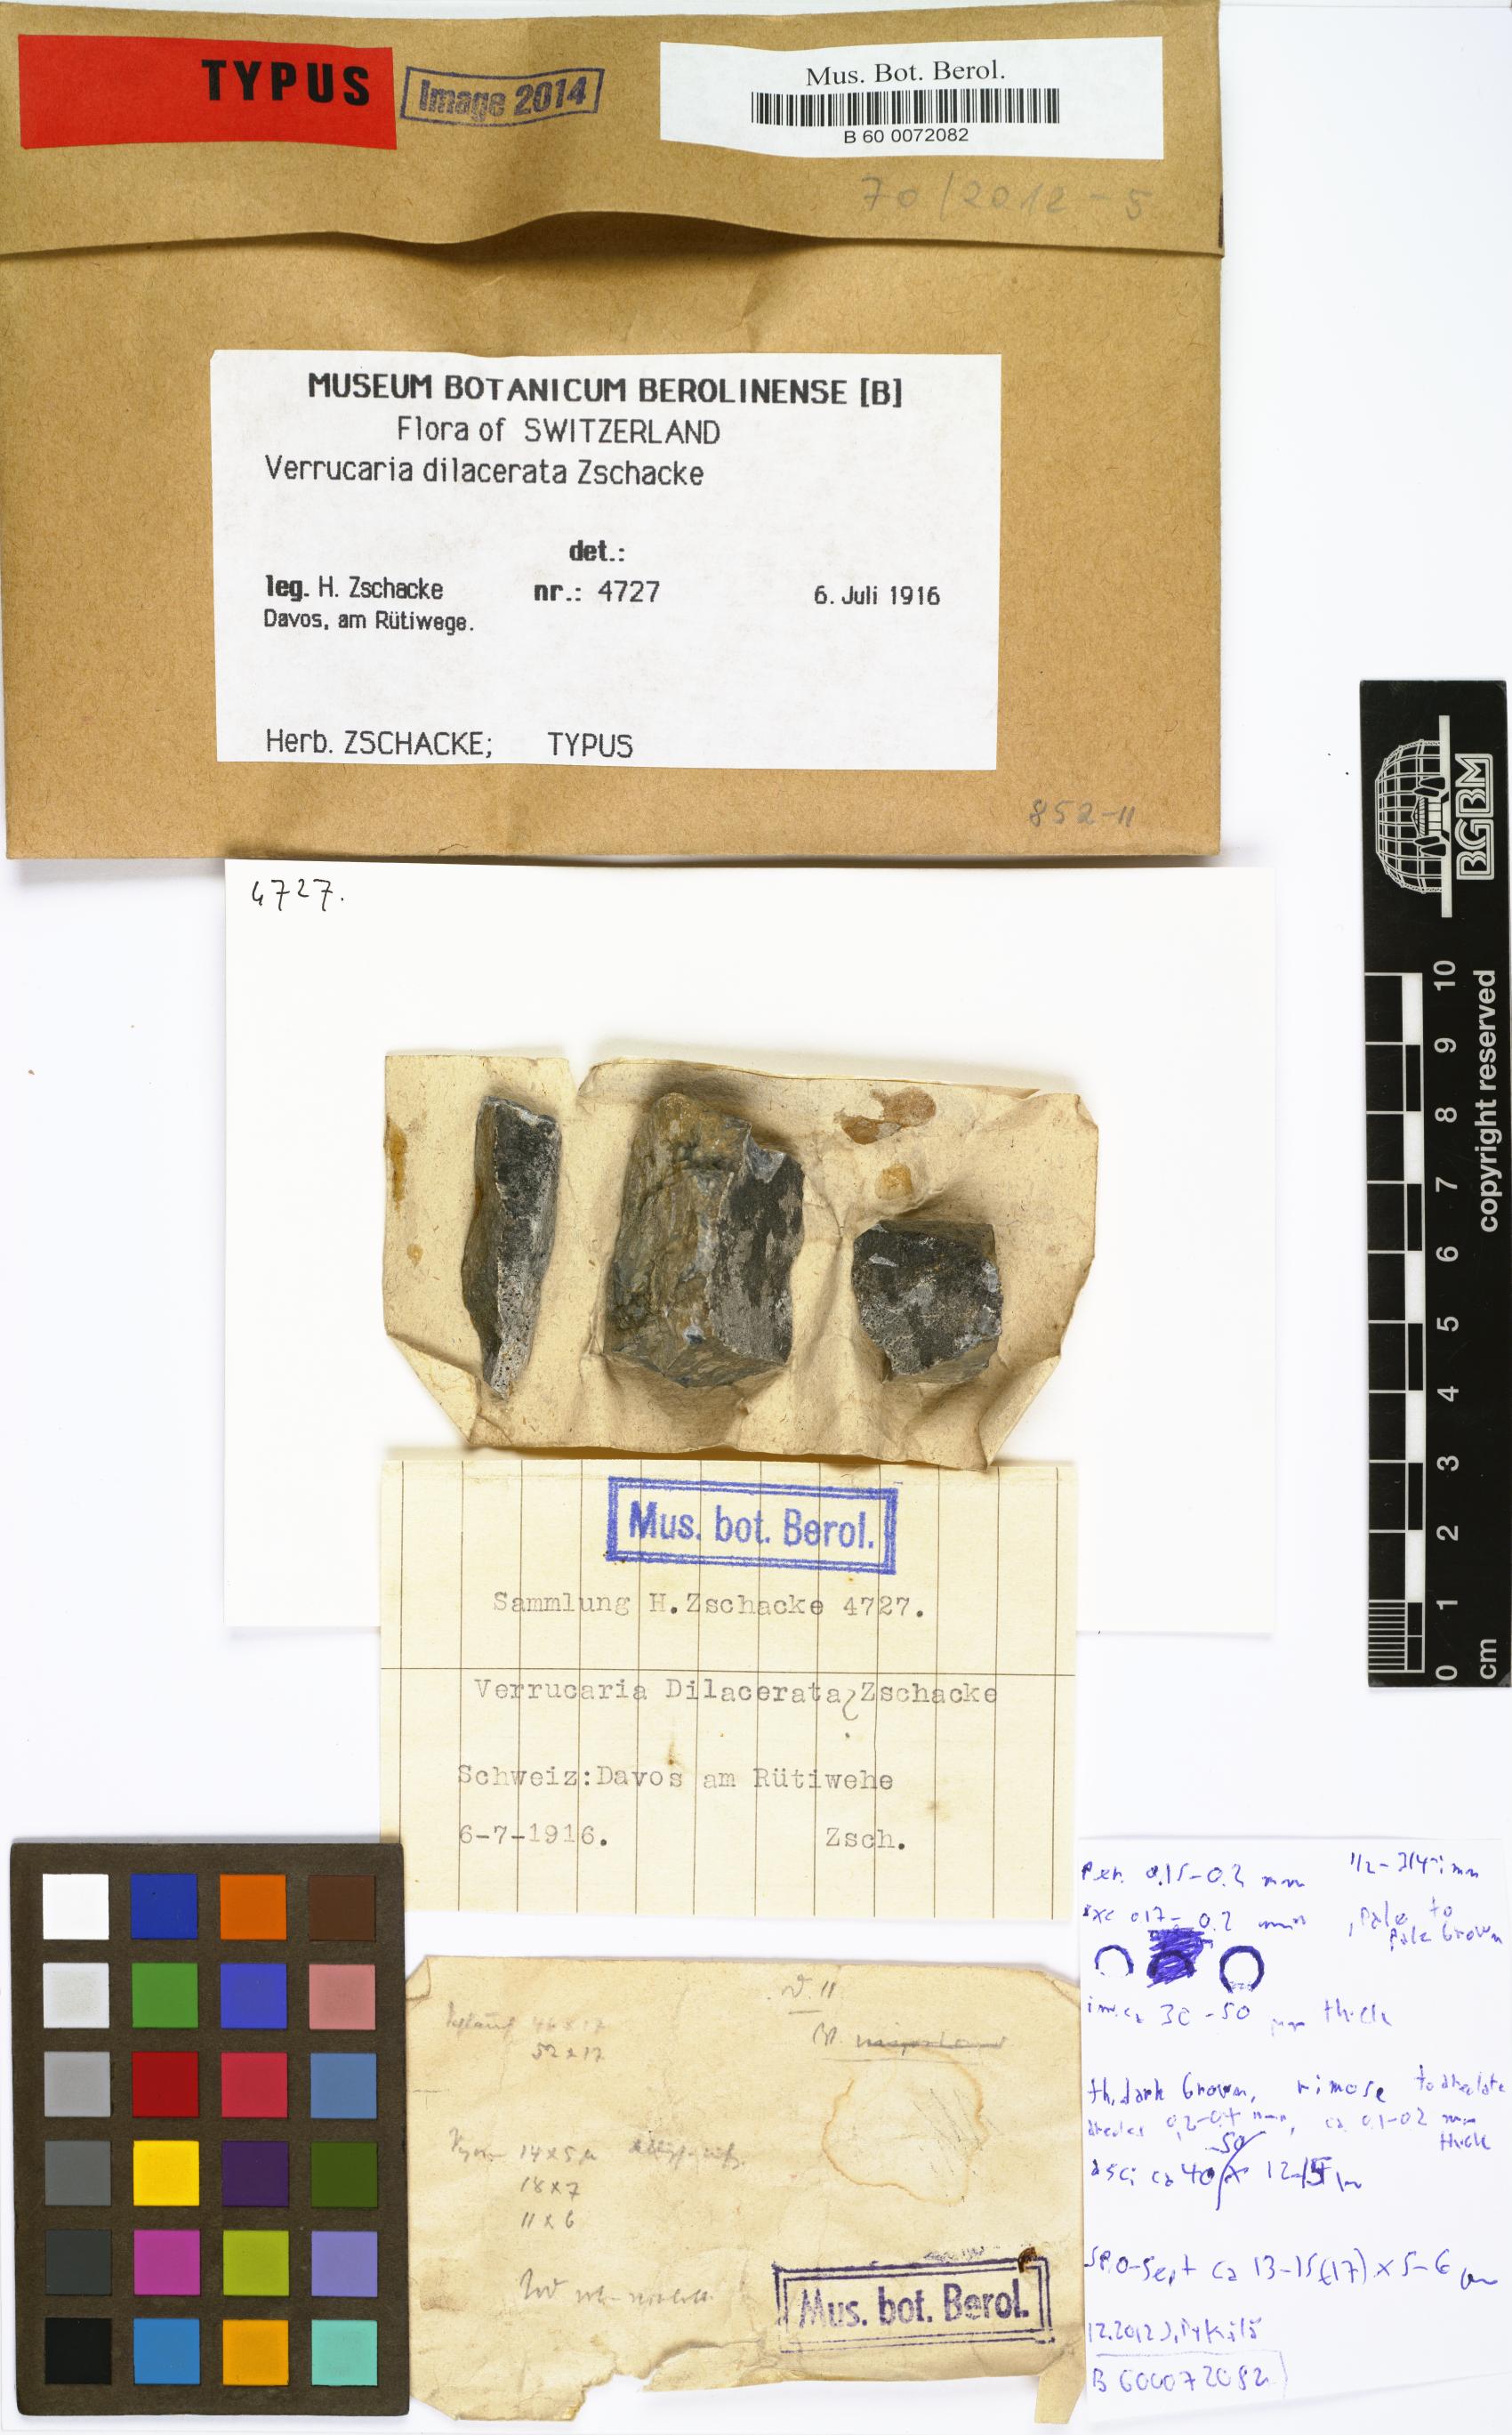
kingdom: Fungi
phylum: Ascomycota
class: Eurotiomycetes
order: Verrucariales
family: Verrucariaceae
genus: Verrucaria
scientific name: Verrucaria
